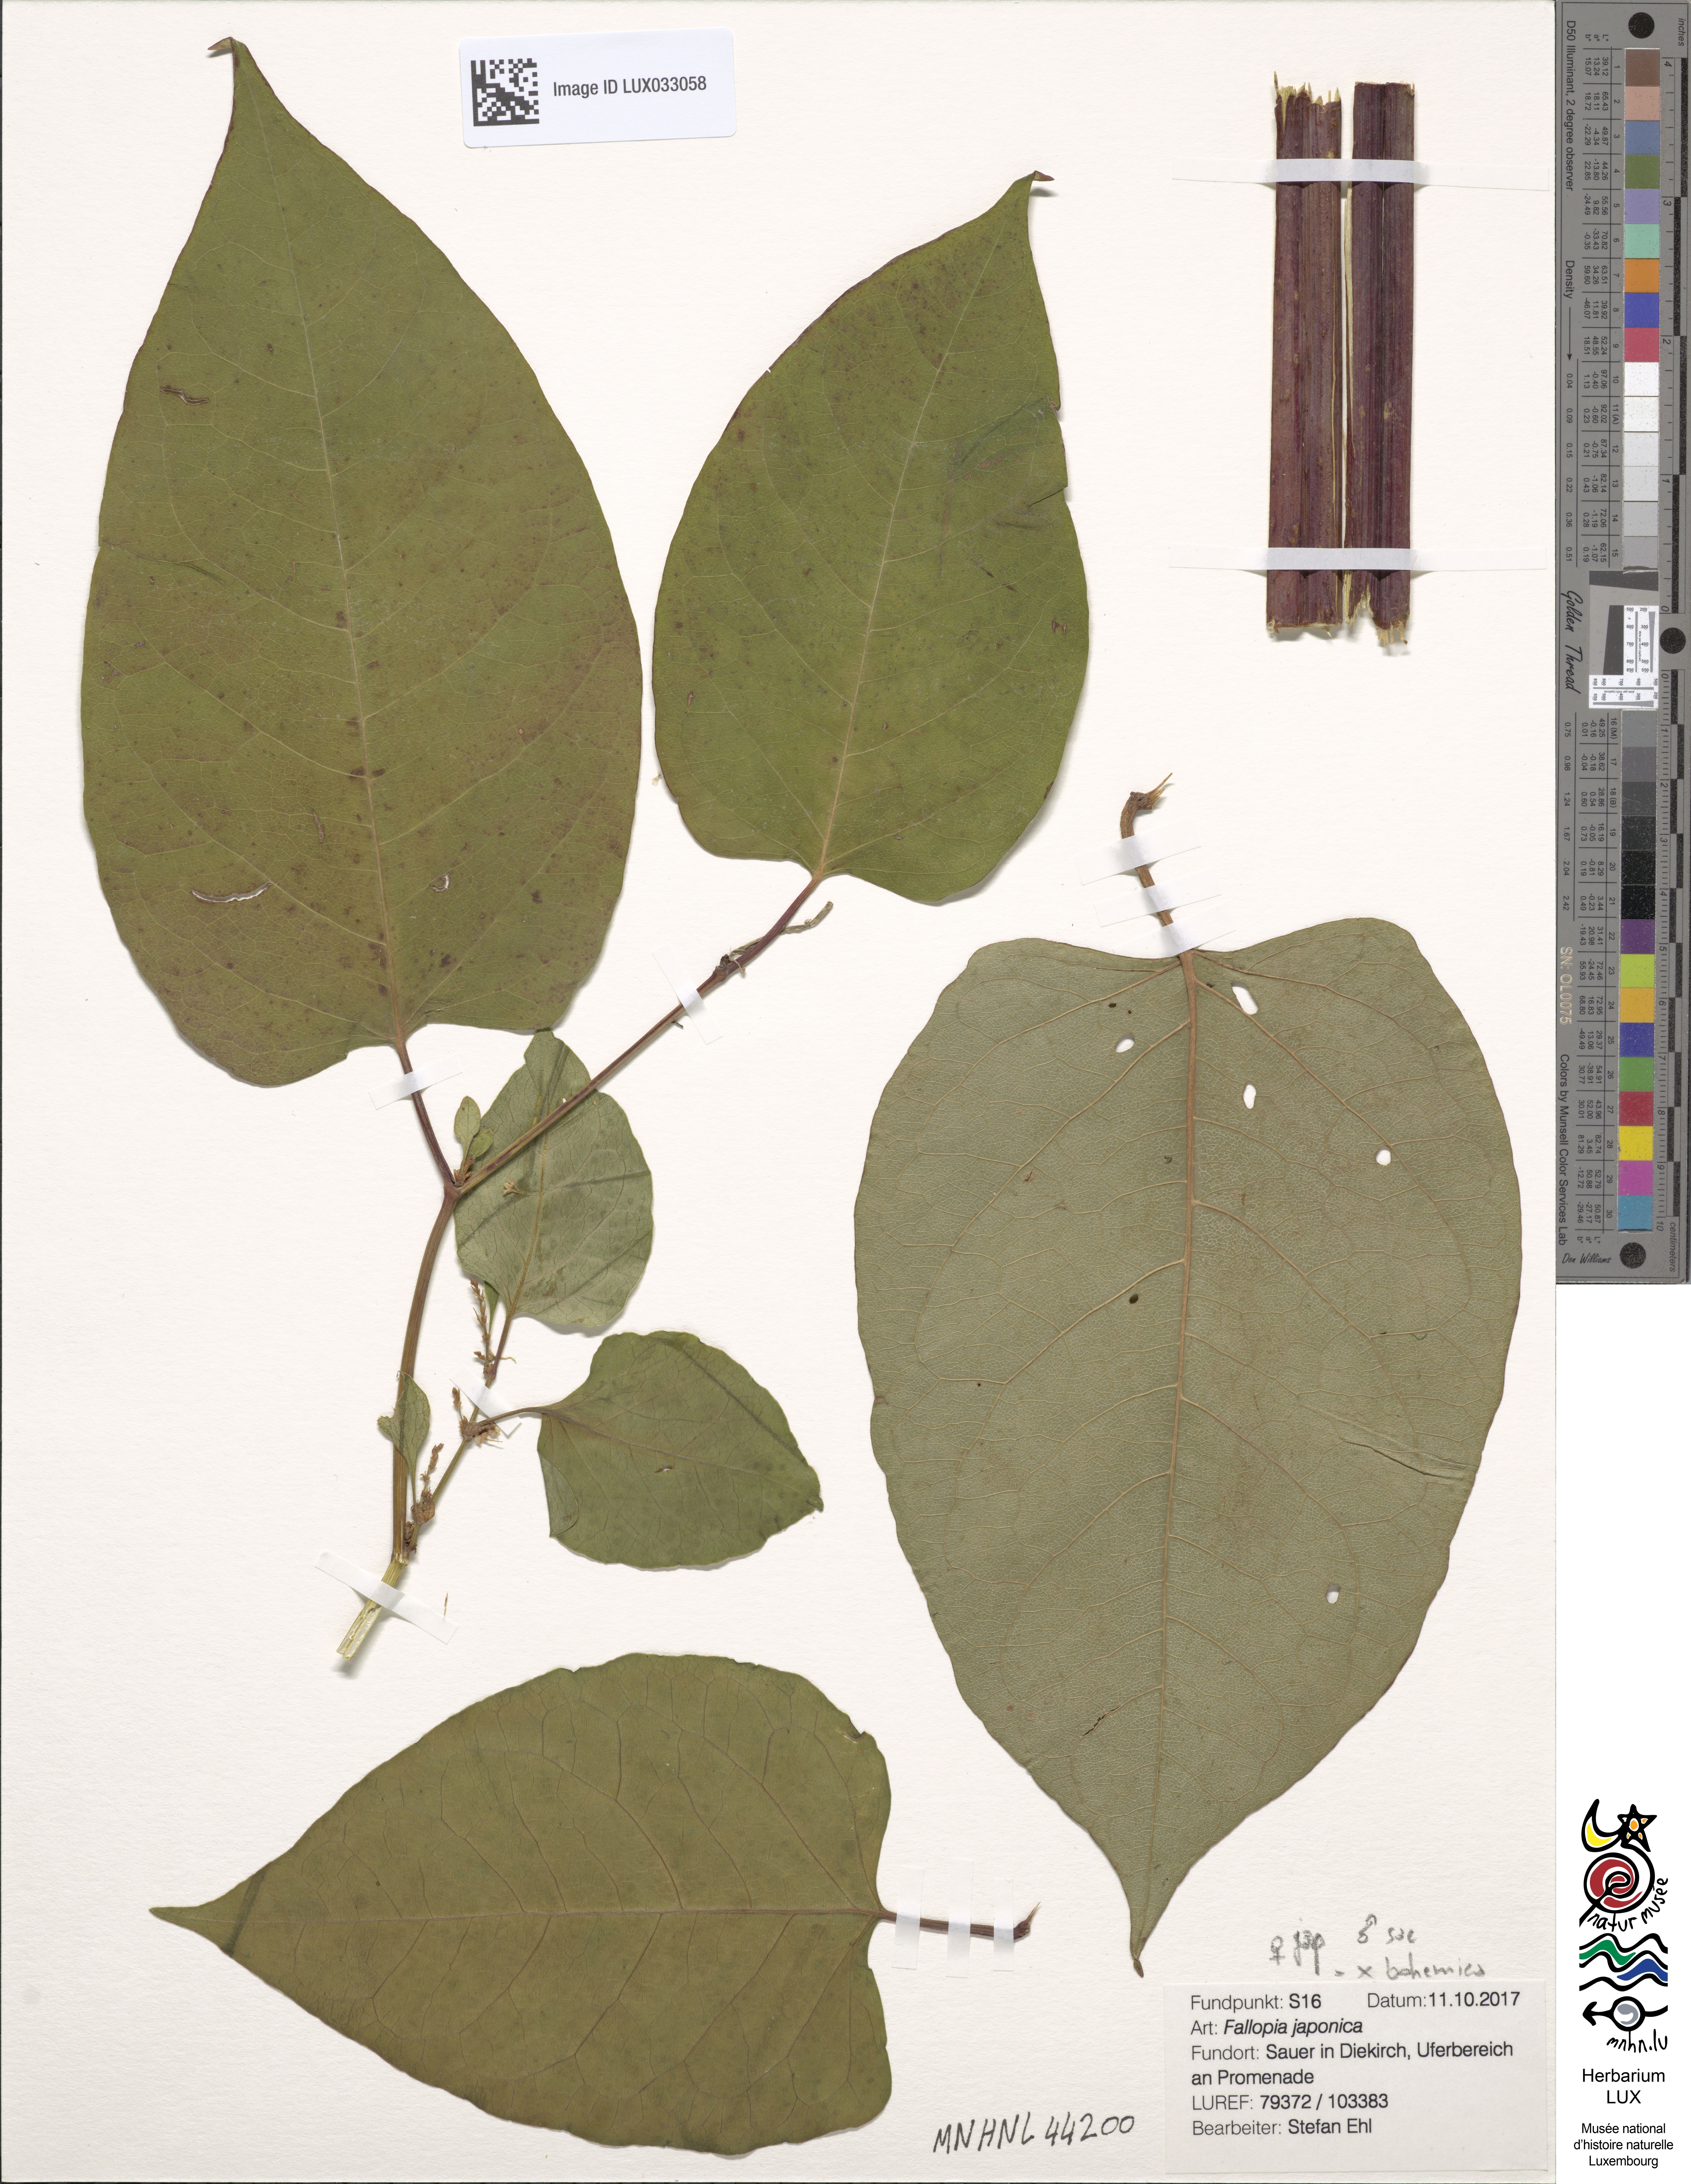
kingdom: Plantae
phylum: Tracheophyta
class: Magnoliopsida
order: Caryophyllales
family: Polygonaceae
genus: Reynoutria
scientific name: Reynoutria japonica
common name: Japanese knotweed
